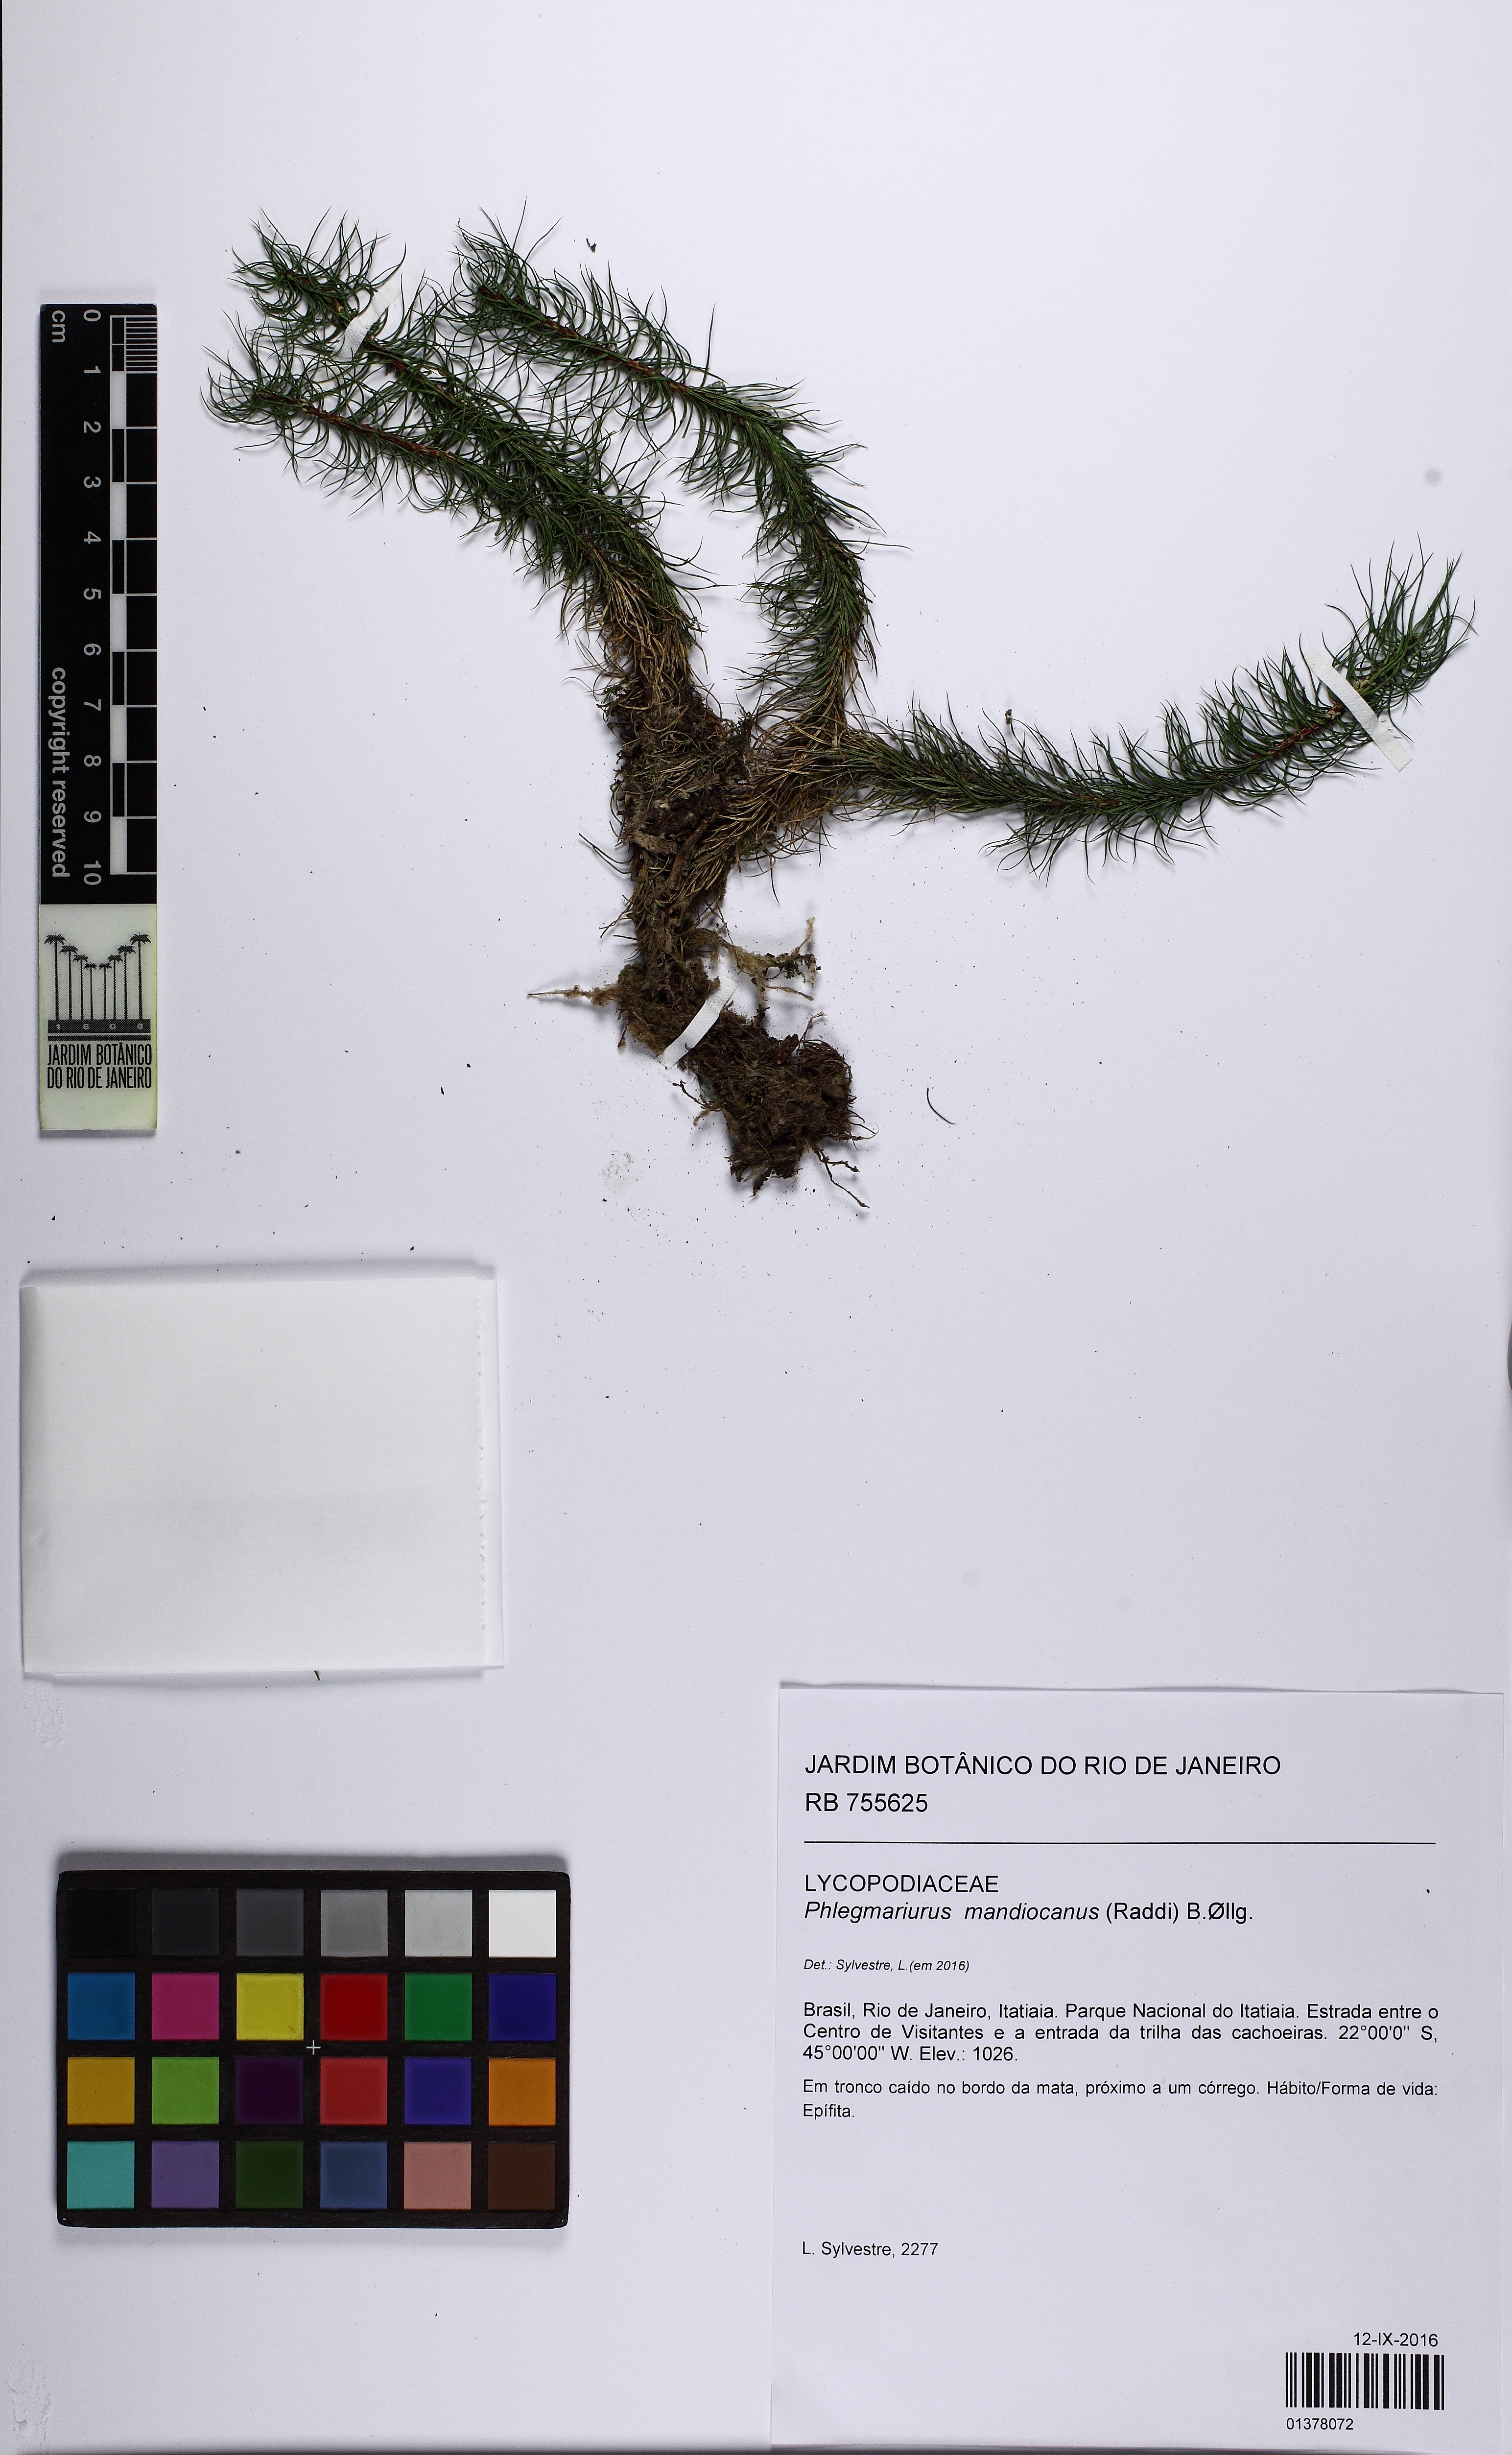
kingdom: Plantae
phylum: Tracheophyta
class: Lycopodiopsida
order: Lycopodiales
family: Lycopodiaceae
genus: Phlegmariurus
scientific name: Phlegmariurus mandiocanus
